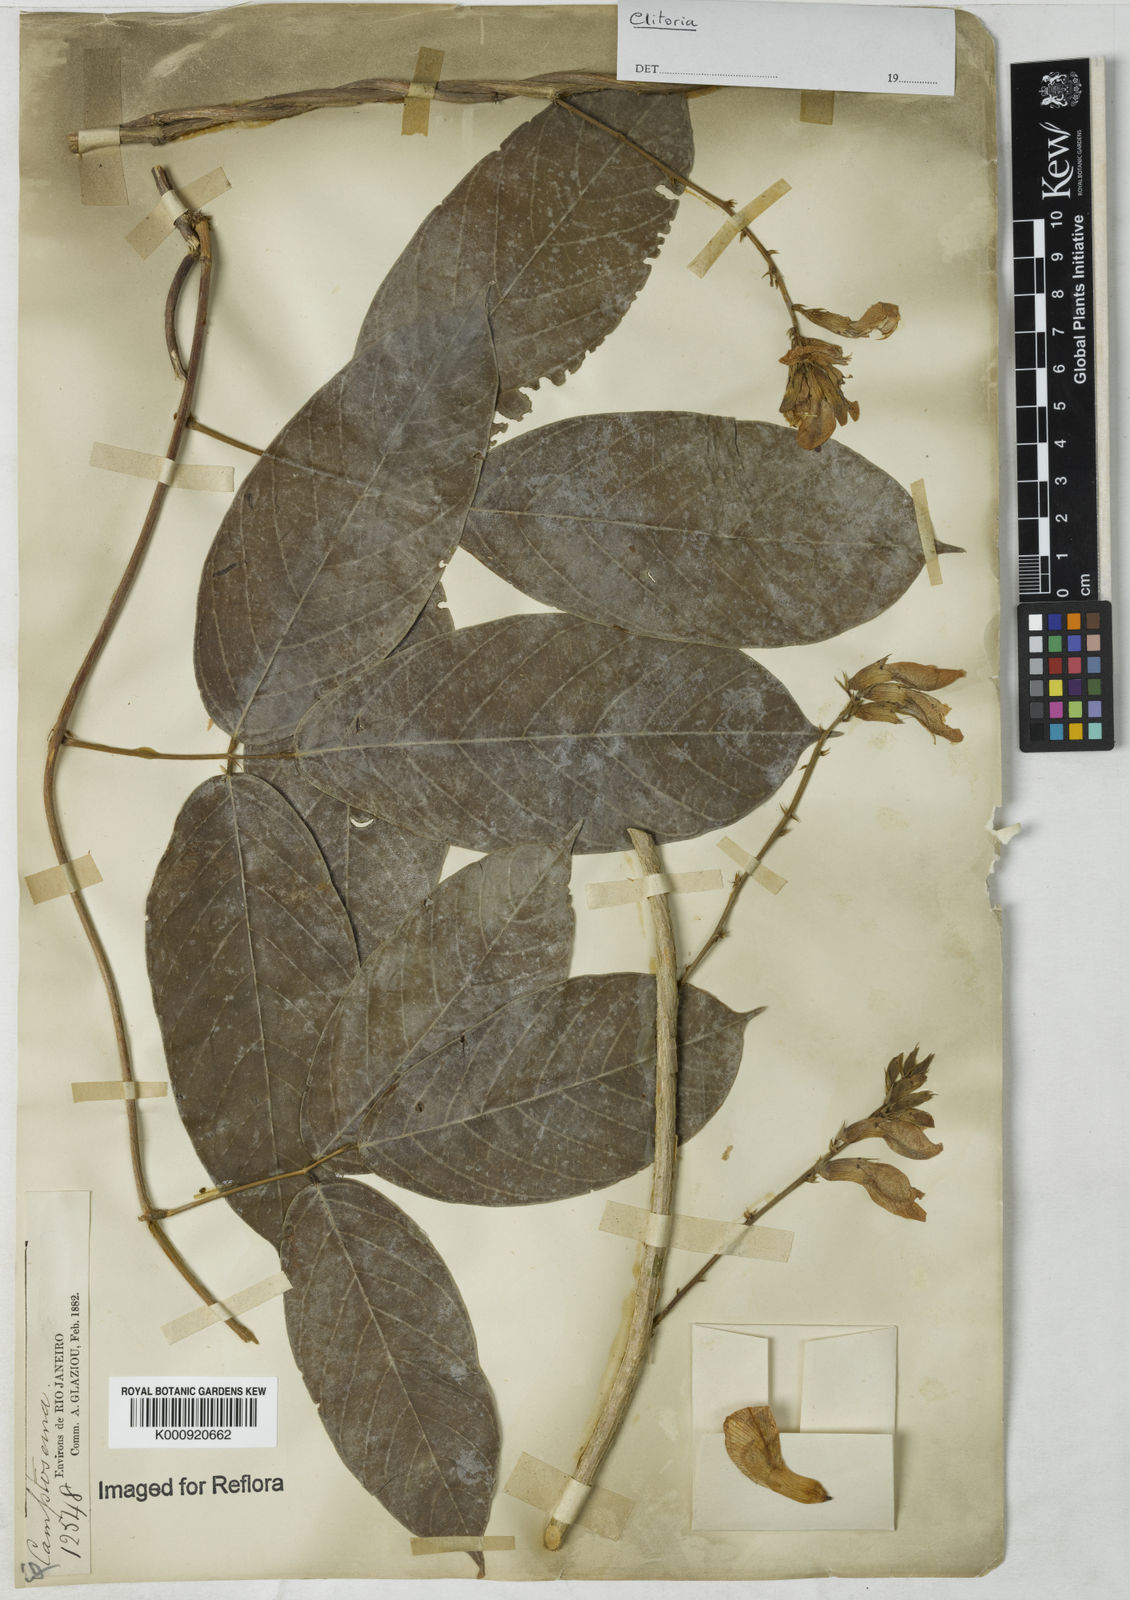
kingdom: Plantae
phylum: Tracheophyta
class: Magnoliopsida
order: Fabales
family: Fabaceae
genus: Clitoria
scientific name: Clitoria
